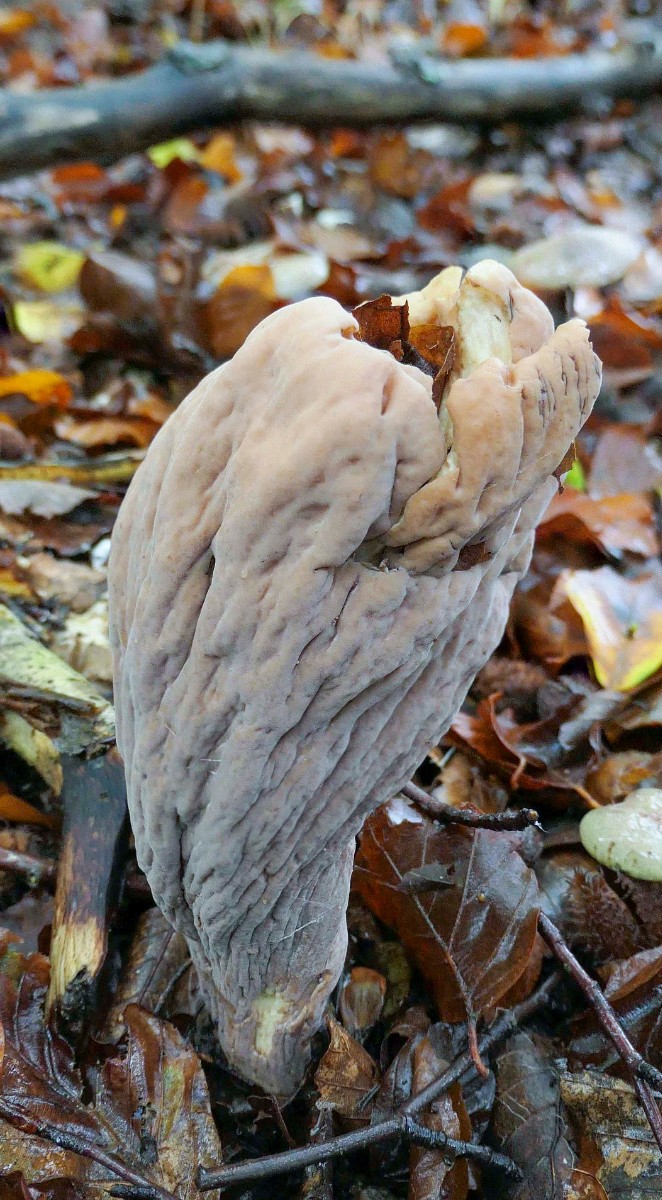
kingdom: Fungi
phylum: Basidiomycota
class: Agaricomycetes
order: Gomphales
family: Clavariadelphaceae
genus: Clavariadelphus
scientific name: Clavariadelphus pistillaris
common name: herkules-kæmpekølle
